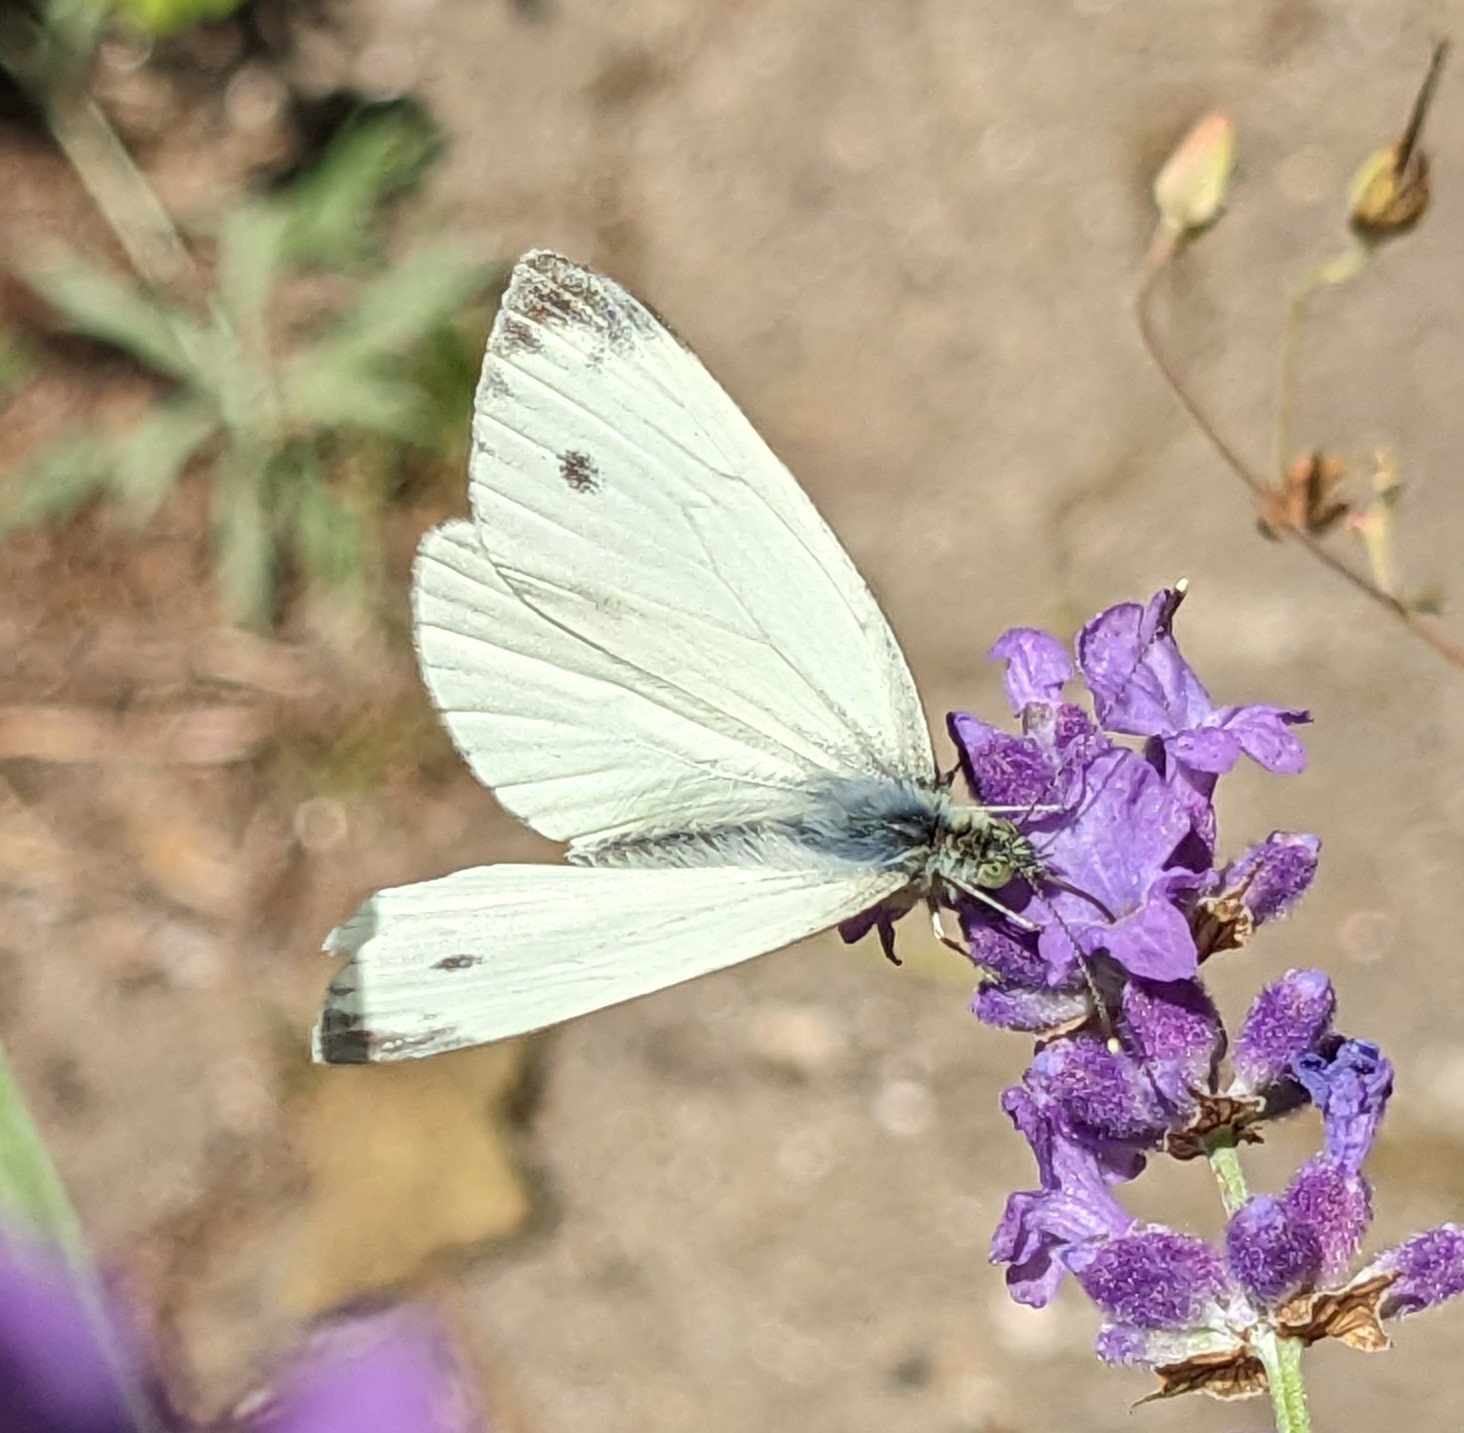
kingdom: Animalia
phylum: Arthropoda
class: Insecta
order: Lepidoptera
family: Pieridae
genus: Pieris
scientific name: Pieris napi
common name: Grønåret kålsommerfugl
